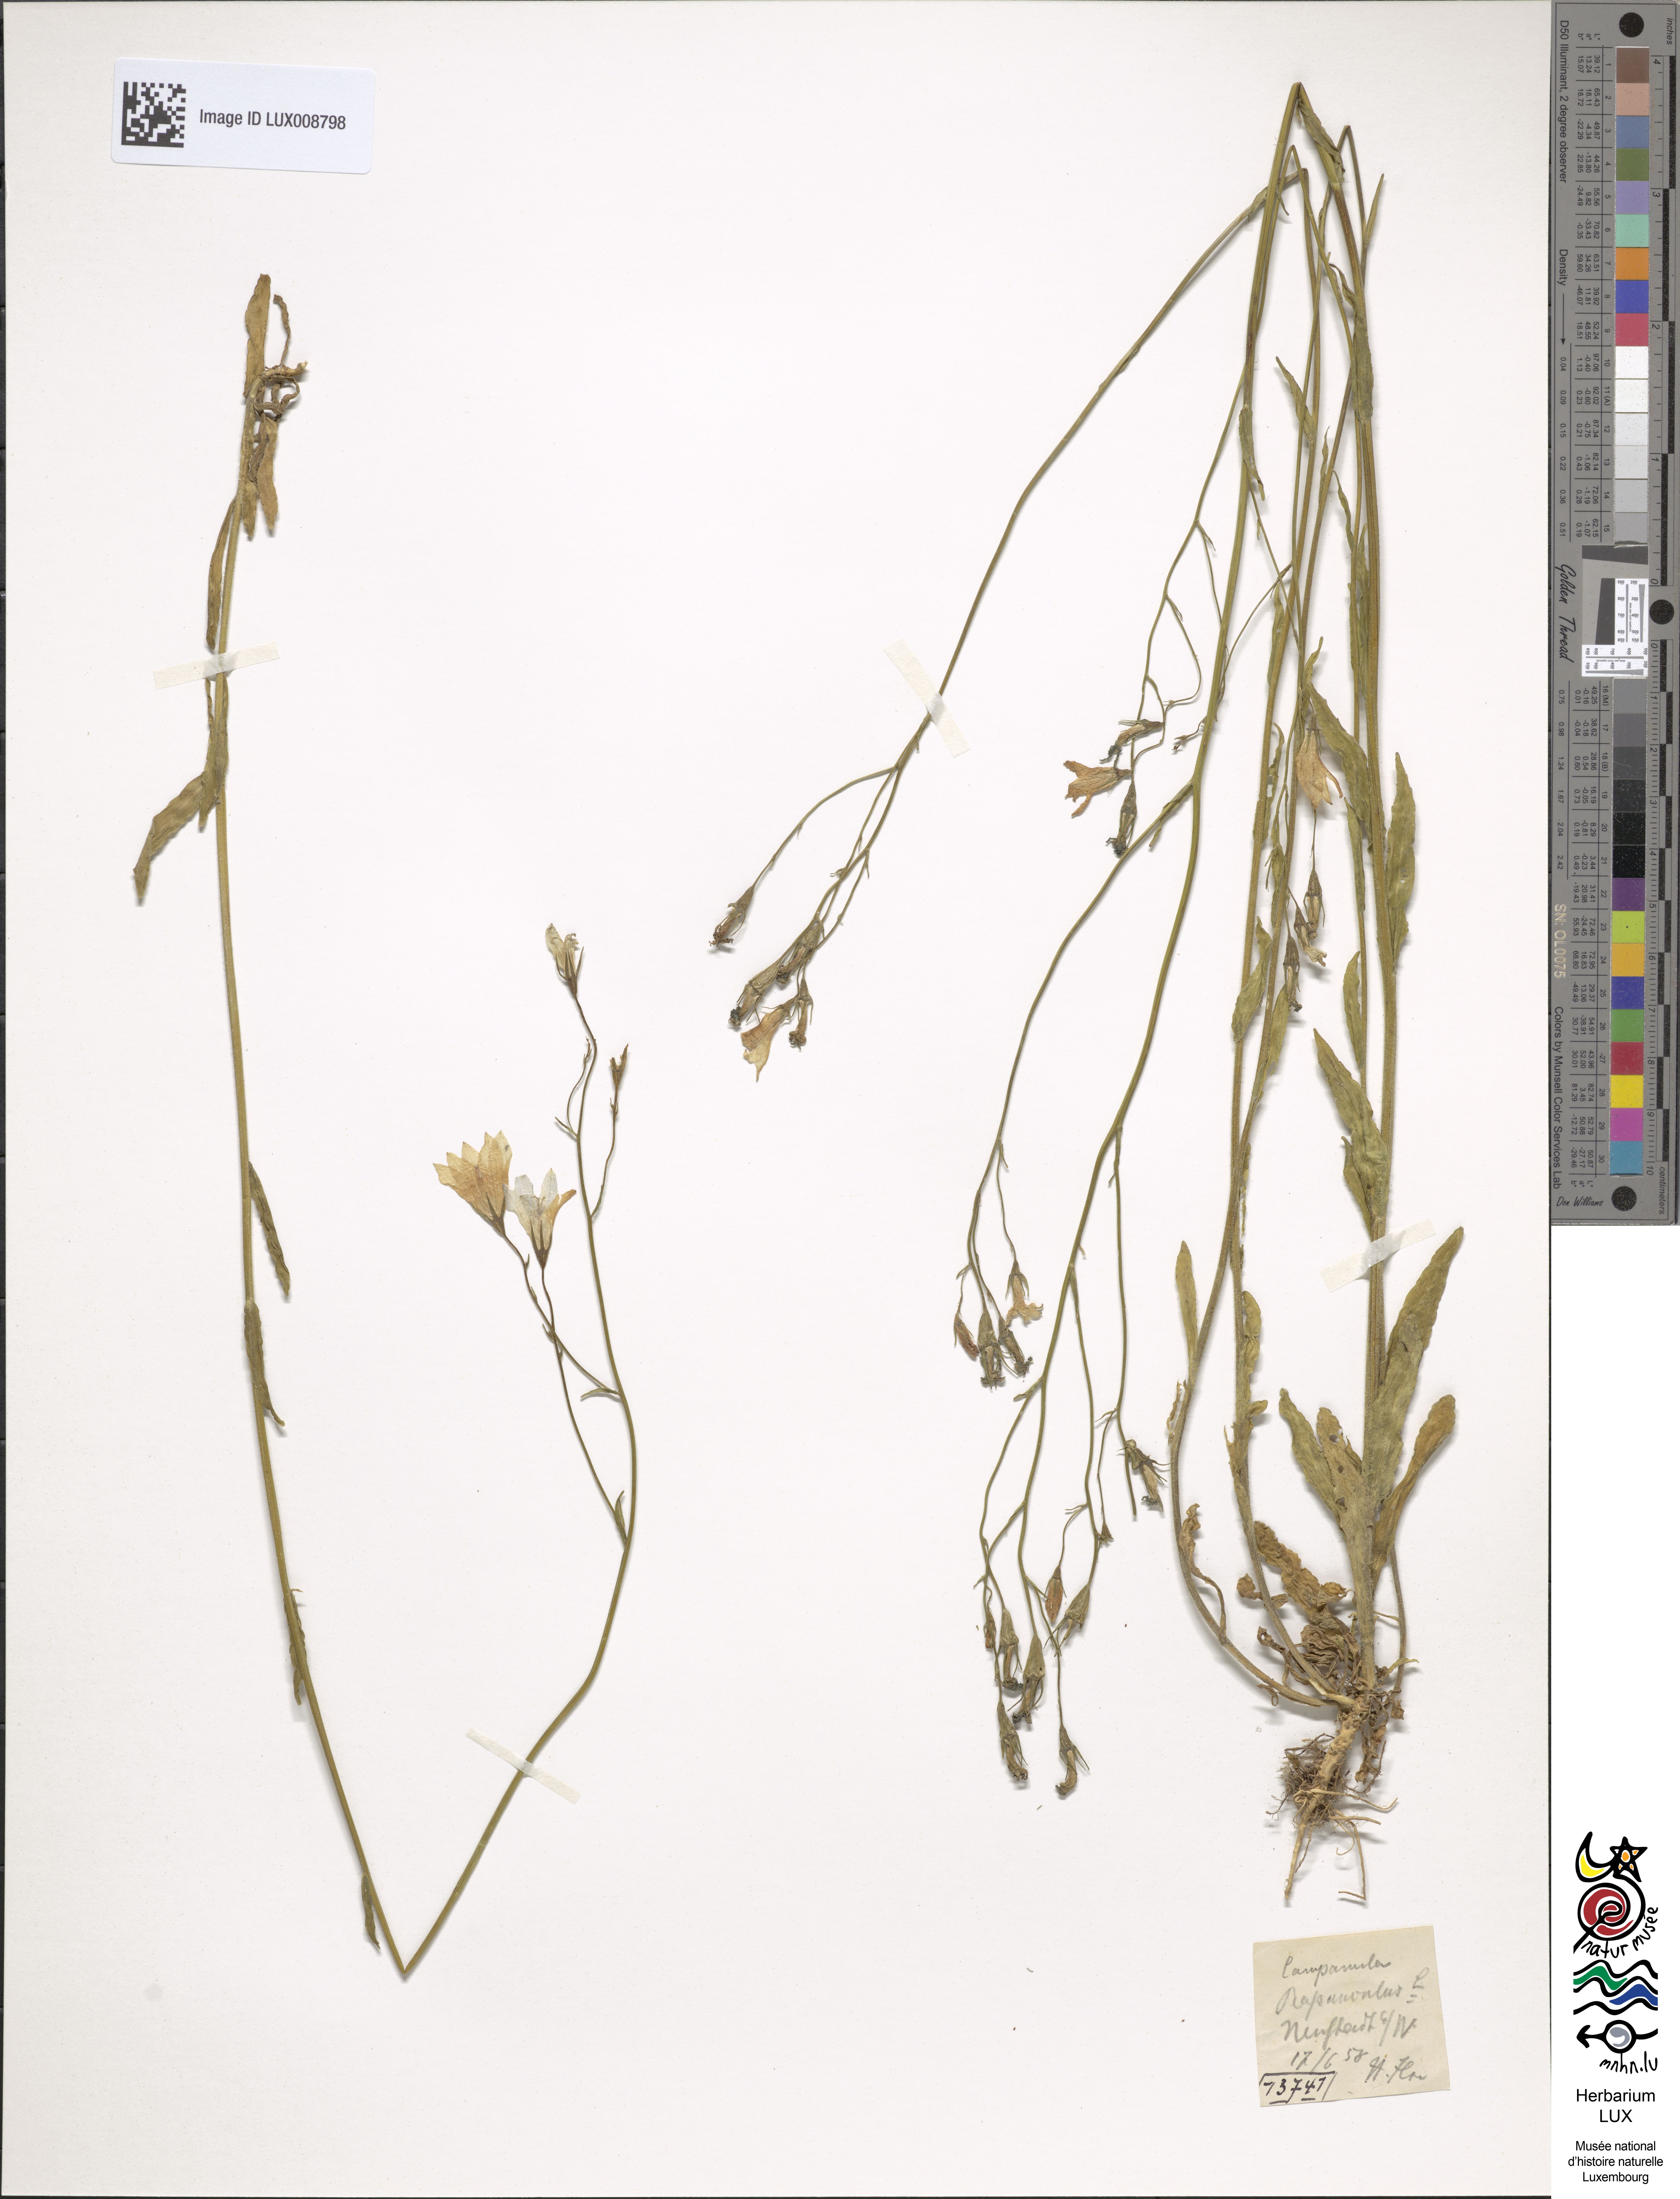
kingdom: Plantae
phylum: Tracheophyta
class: Magnoliopsida
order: Asterales
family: Campanulaceae
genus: Campanula
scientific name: Campanula rapunculus
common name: Rampion bellflower
